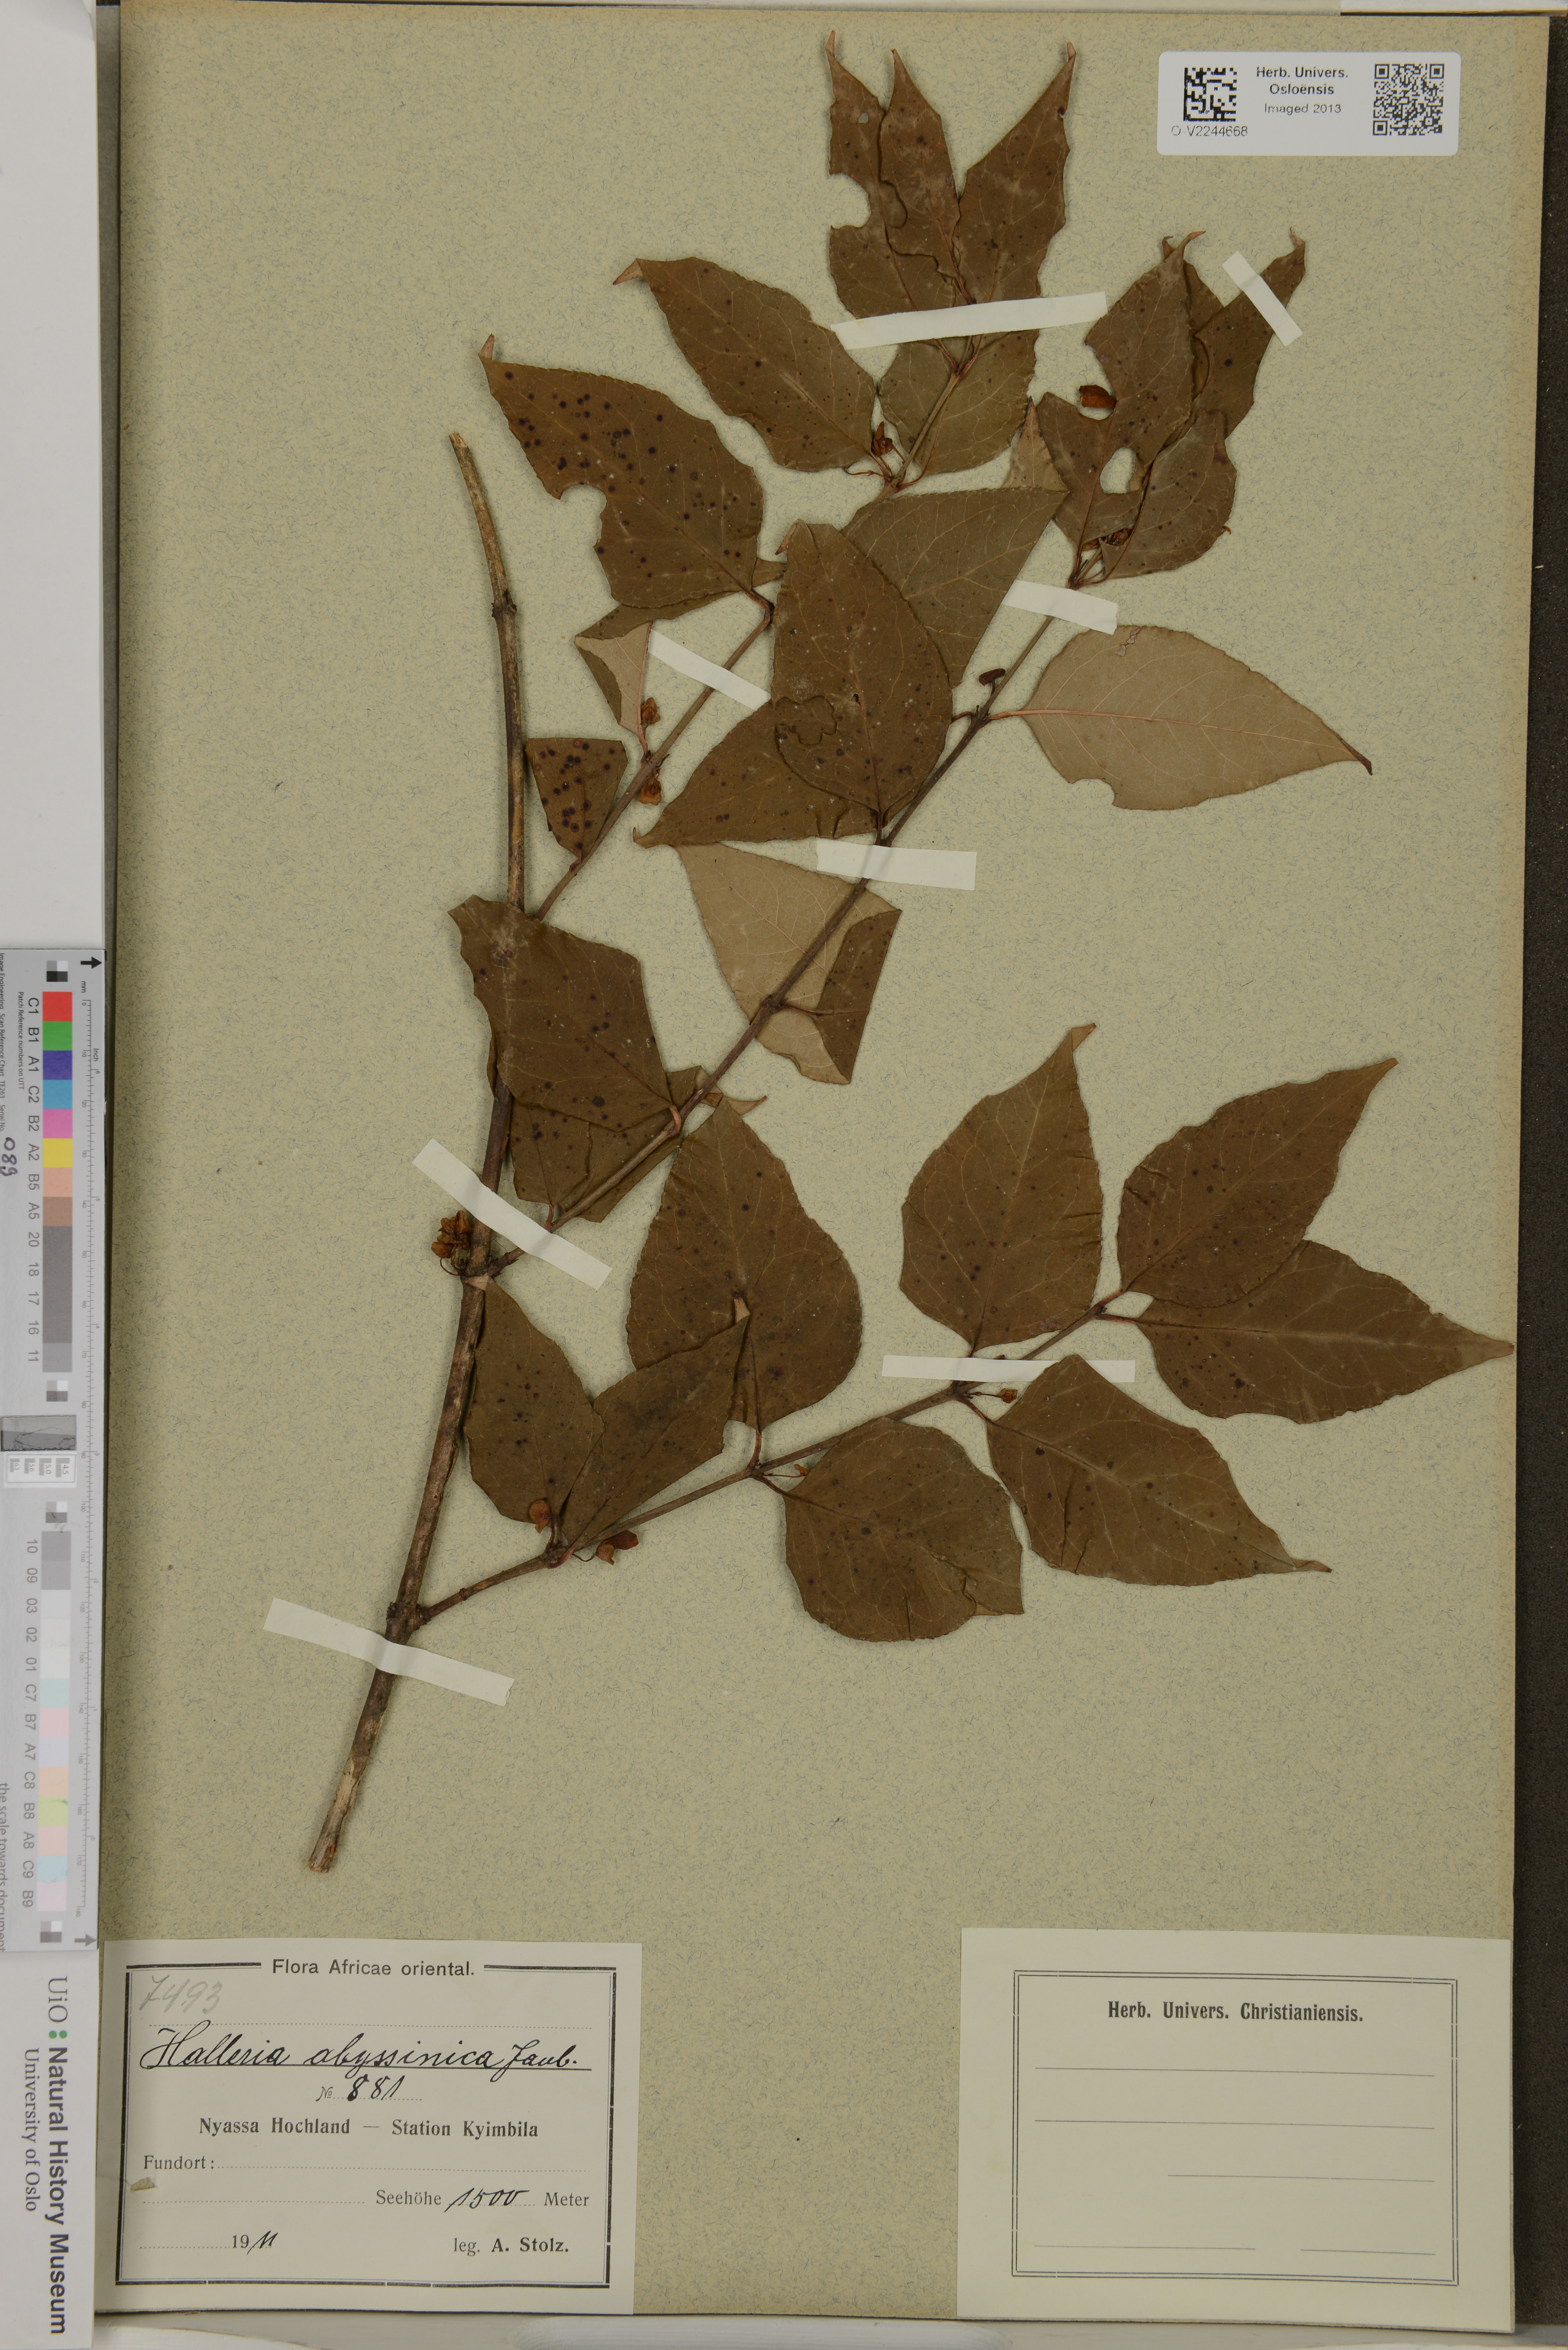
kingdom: Plantae
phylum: Tracheophyta
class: Magnoliopsida
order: Lamiales
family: Stilbaceae
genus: Halleria
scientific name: Halleria lucida
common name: Tree fuschia
